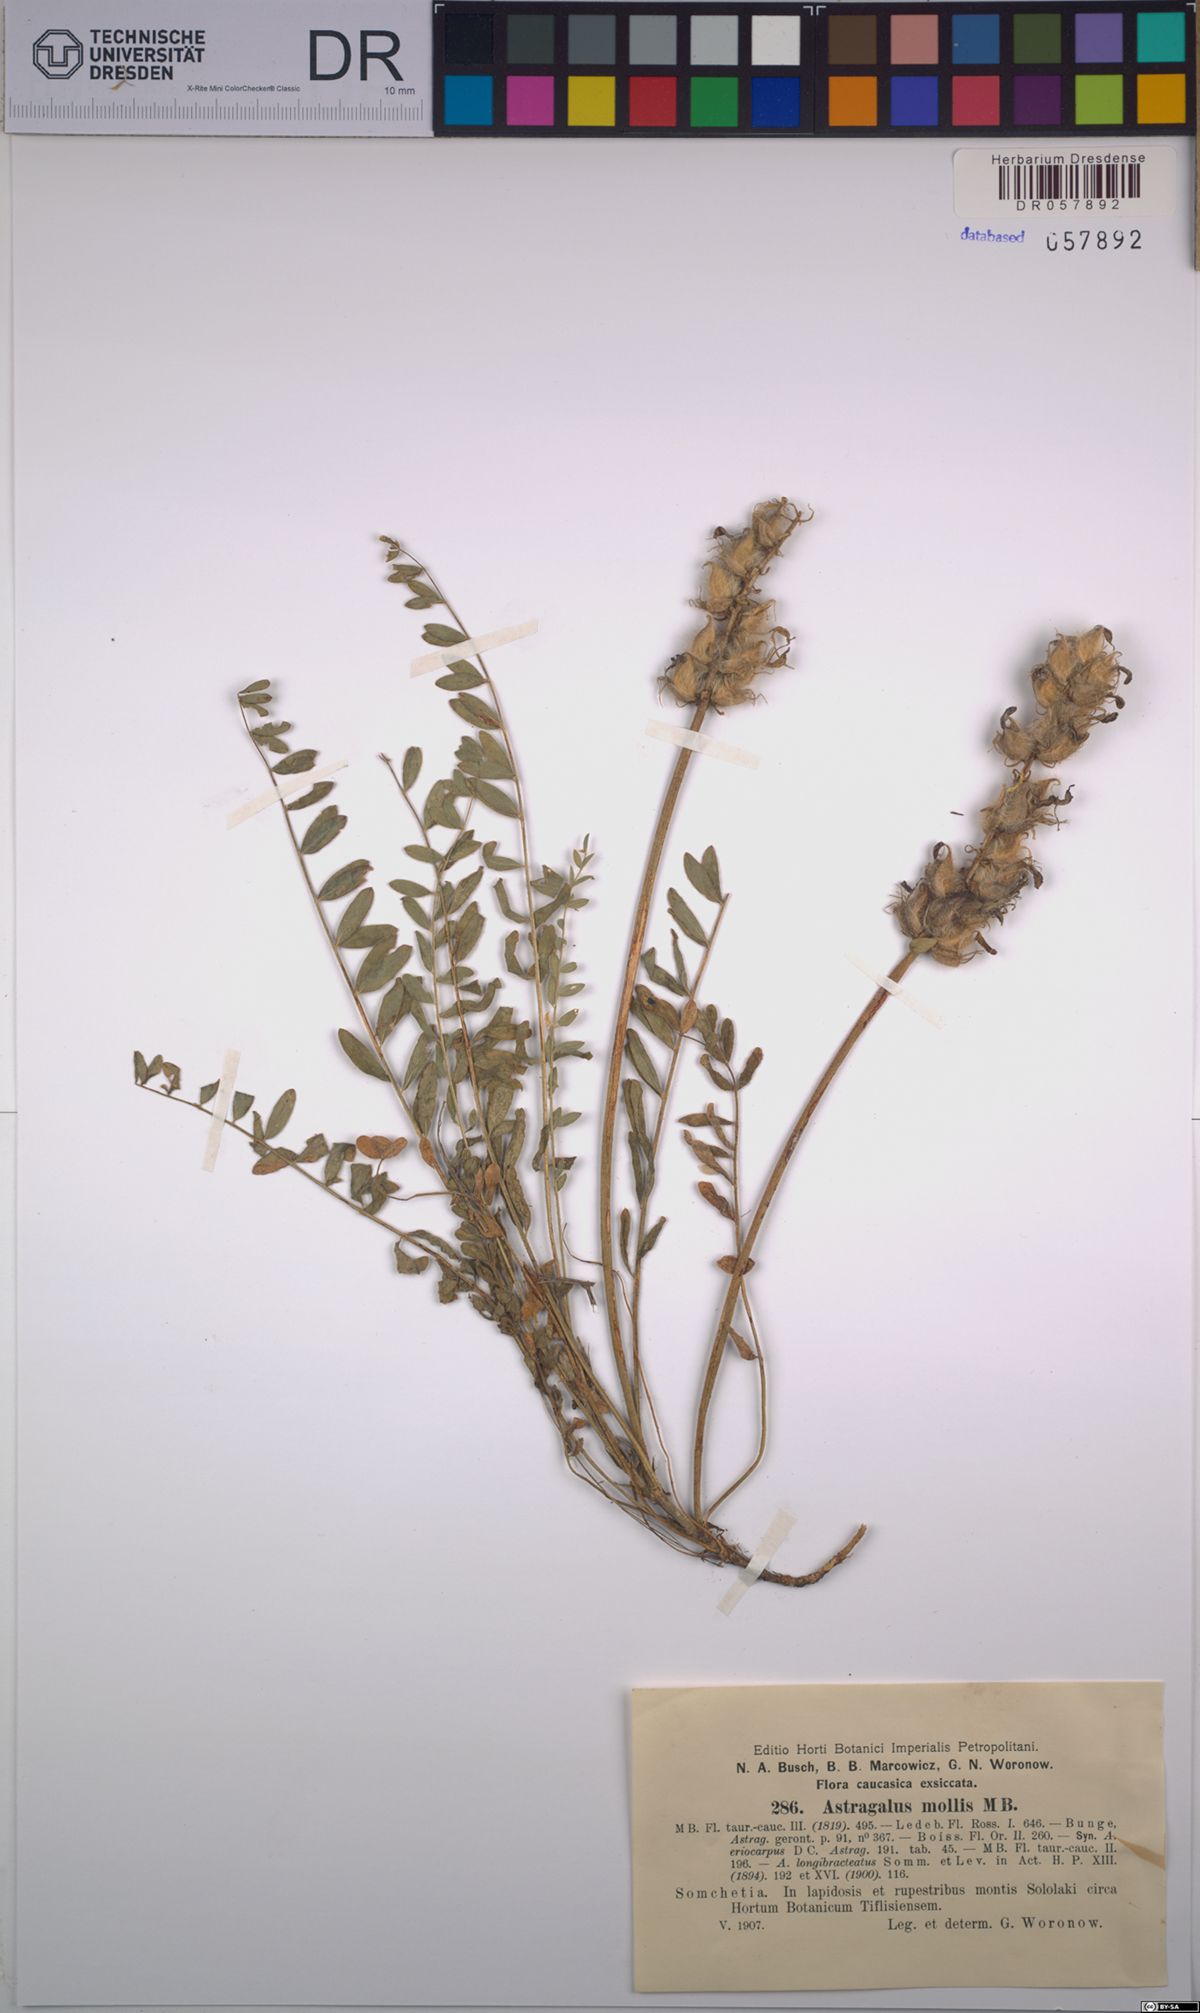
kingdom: Plantae
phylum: Tracheophyta
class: Magnoliopsida
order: Fabales
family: Fabaceae
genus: Astragalus
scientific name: Astragalus mollis
